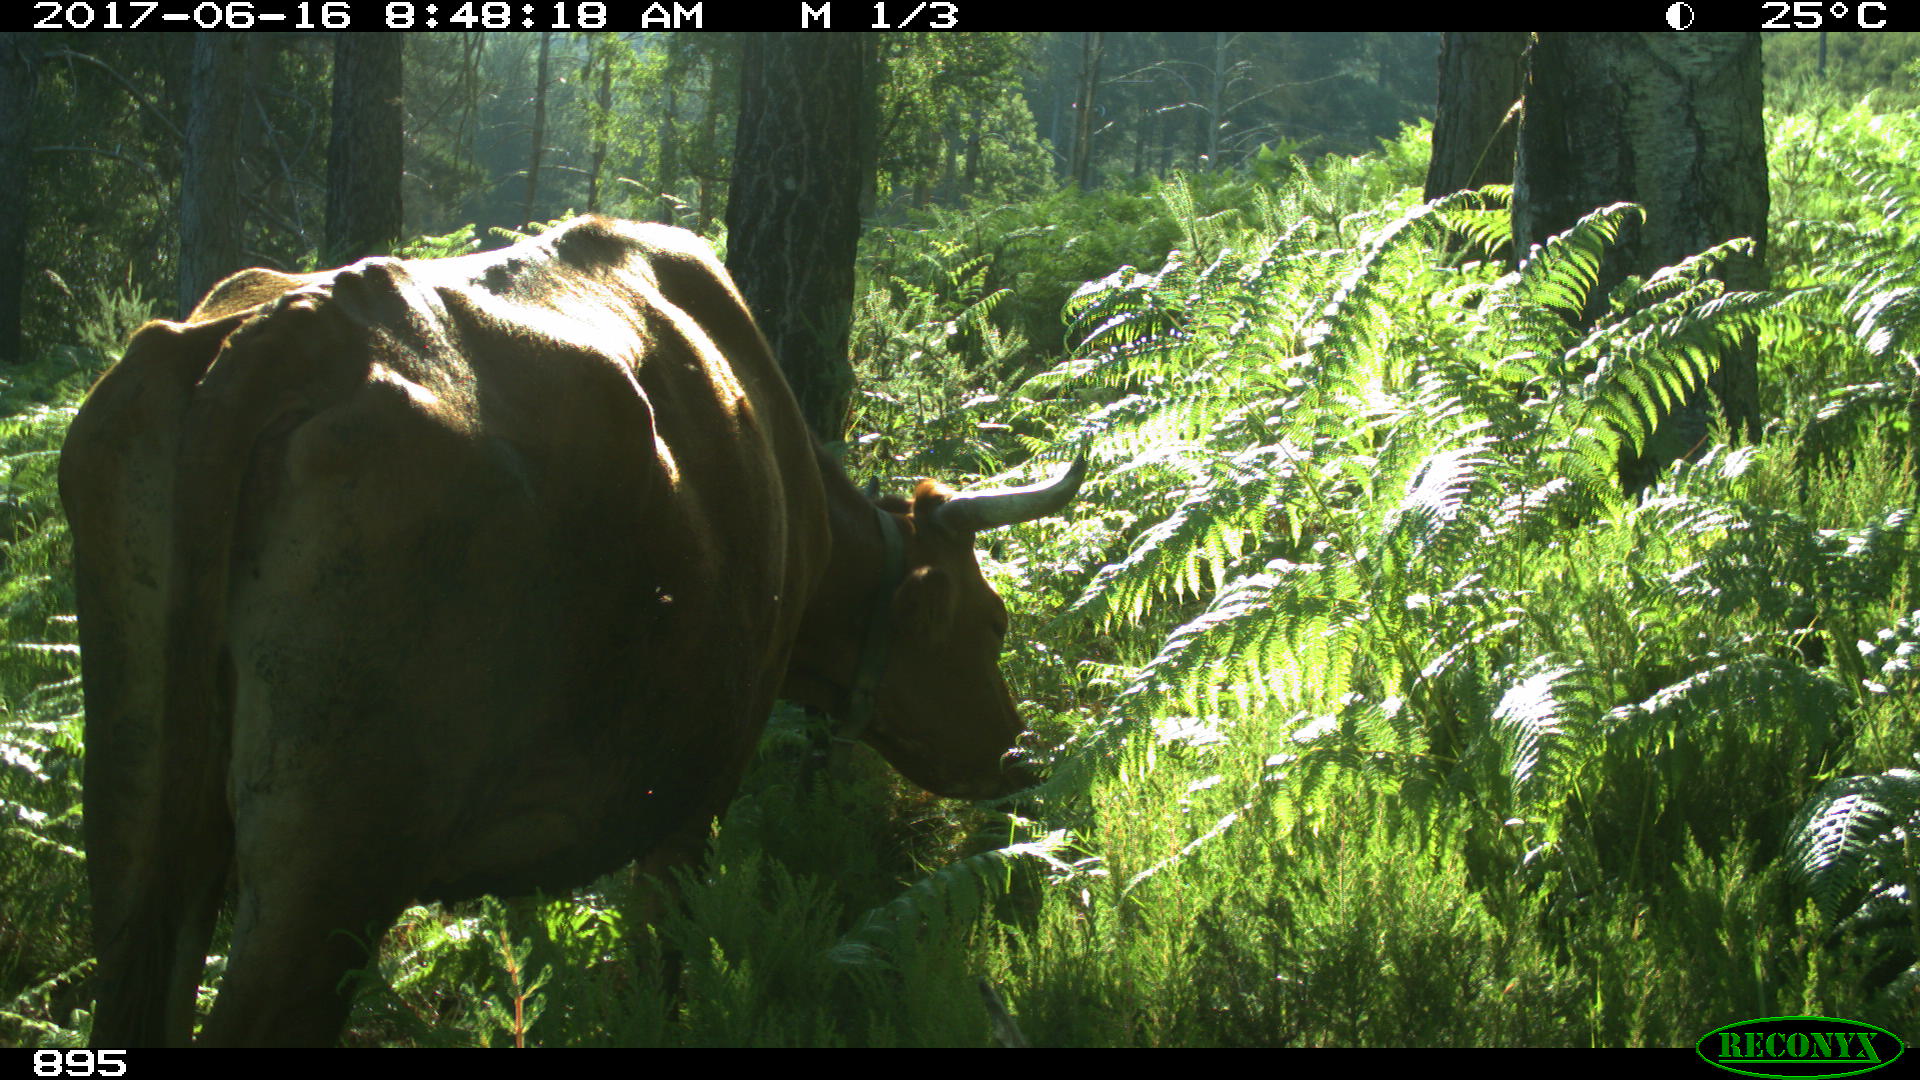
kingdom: Animalia
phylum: Chordata
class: Mammalia
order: Artiodactyla
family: Bovidae
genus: Bos
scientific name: Bos taurus
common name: Domesticated cattle
